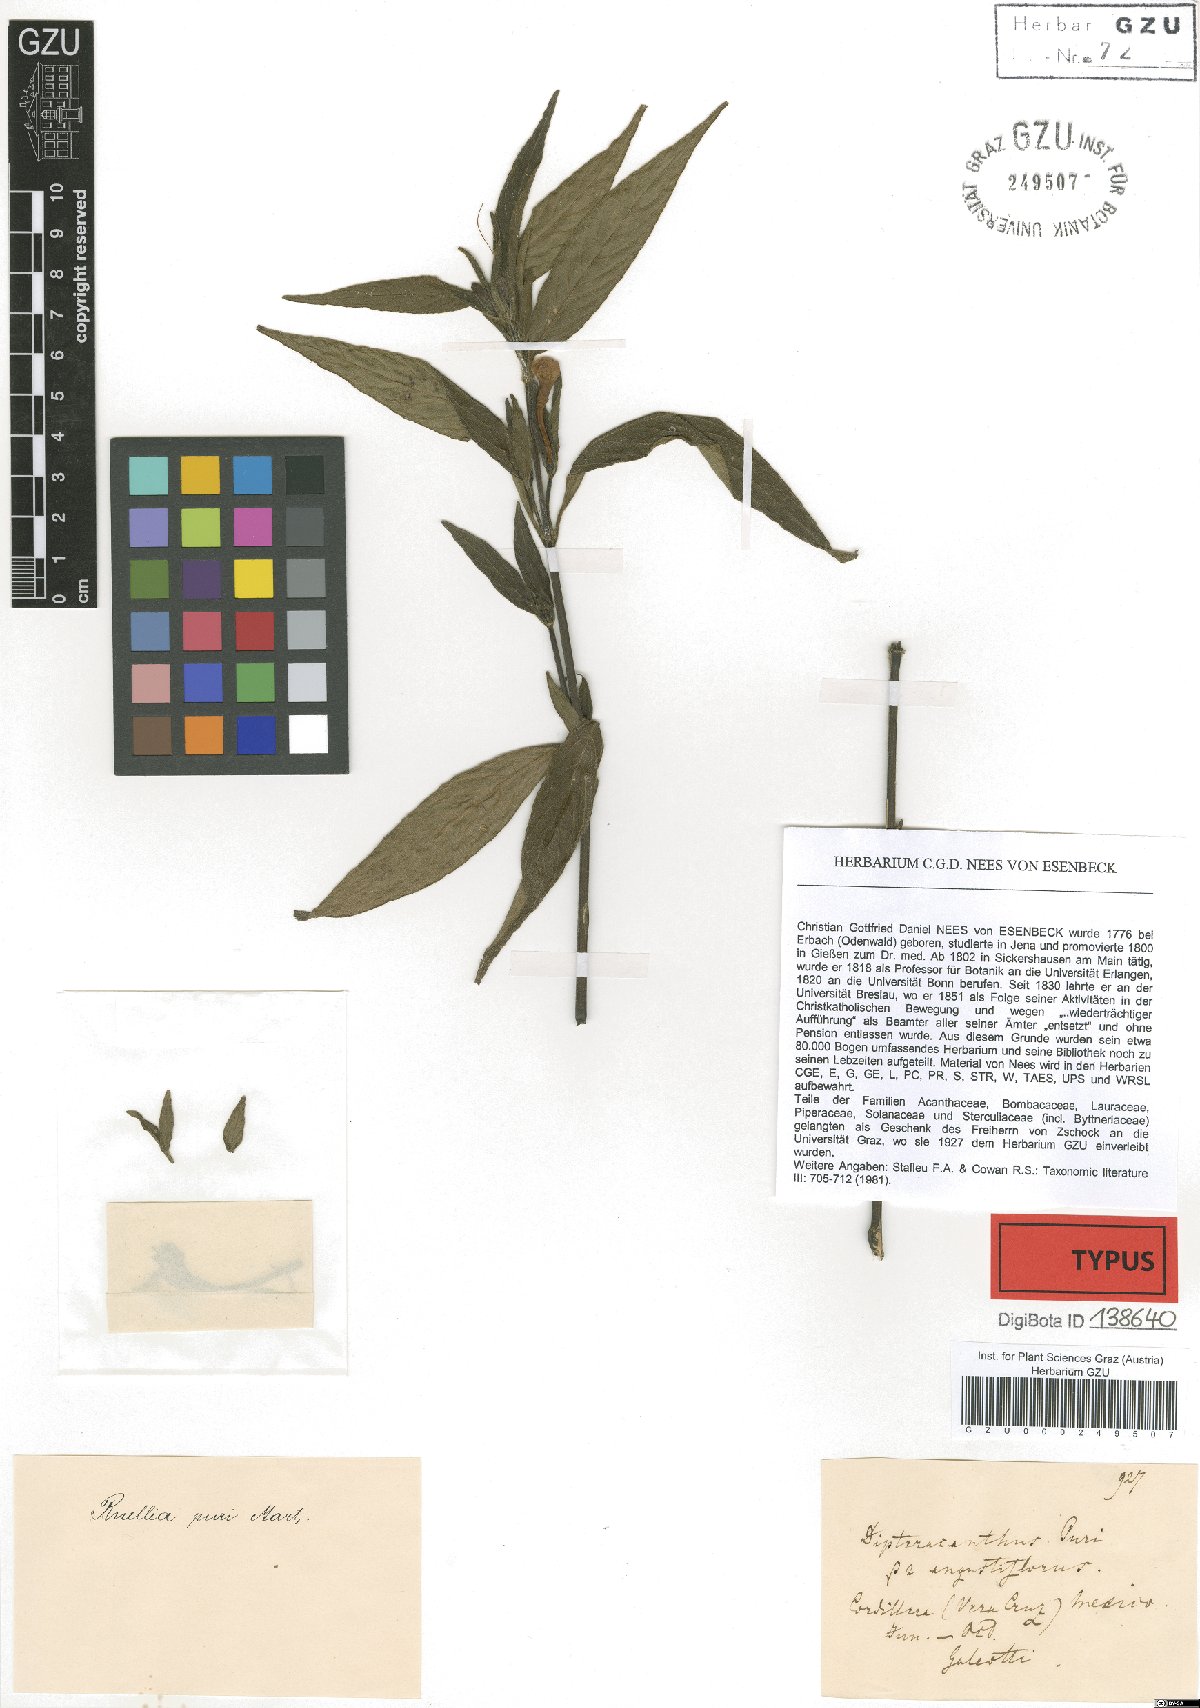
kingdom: Plantae
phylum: Tracheophyta
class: Magnoliopsida
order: Lamiales
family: Acanthaceae
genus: Ruellia
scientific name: Ruellia jussieuoides
